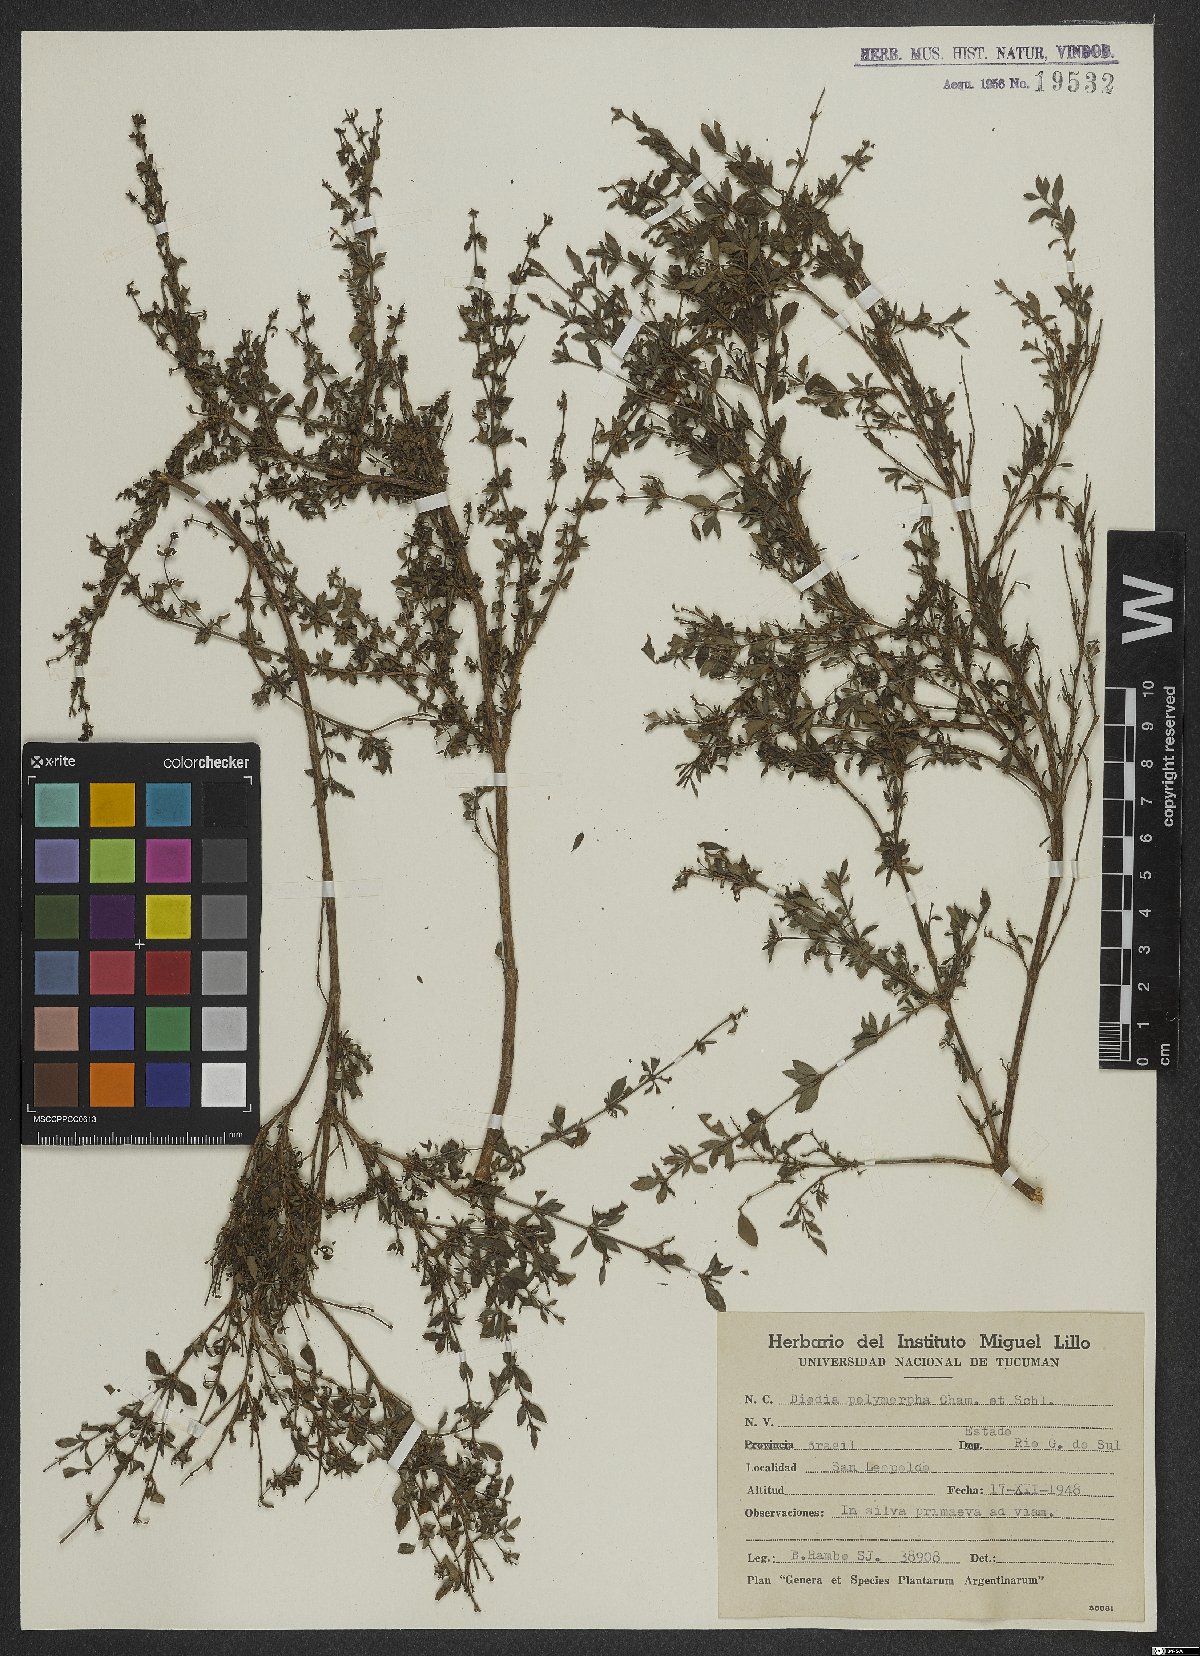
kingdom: Plantae
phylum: Tracheophyta
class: Magnoliopsida
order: Gentianales
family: Rubiaceae
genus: Galianthe
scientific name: Galianthe brasiliensis
